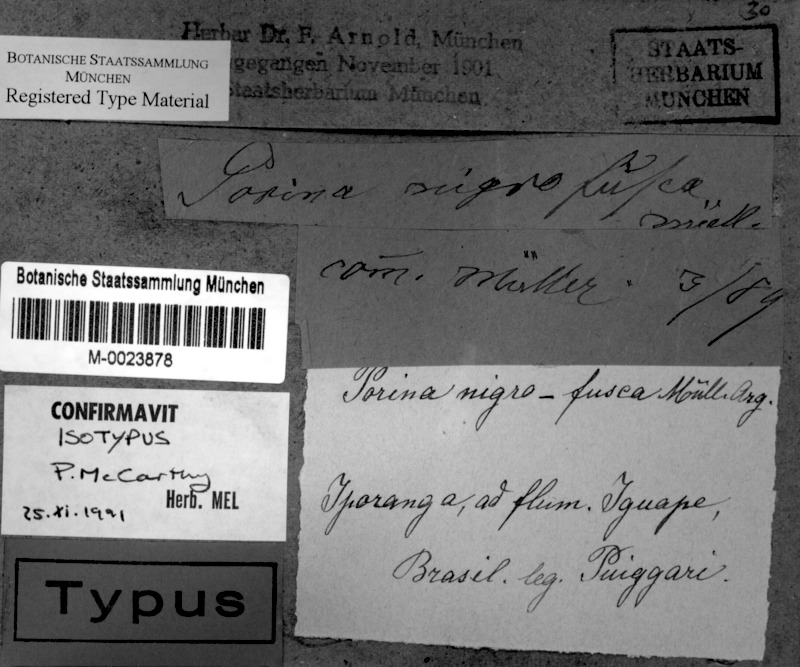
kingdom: Fungi
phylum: Ascomycota
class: Lecanoromycetes
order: Pertusariales
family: Pertusariaceae
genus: Porina
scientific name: Porina nigrofusca
